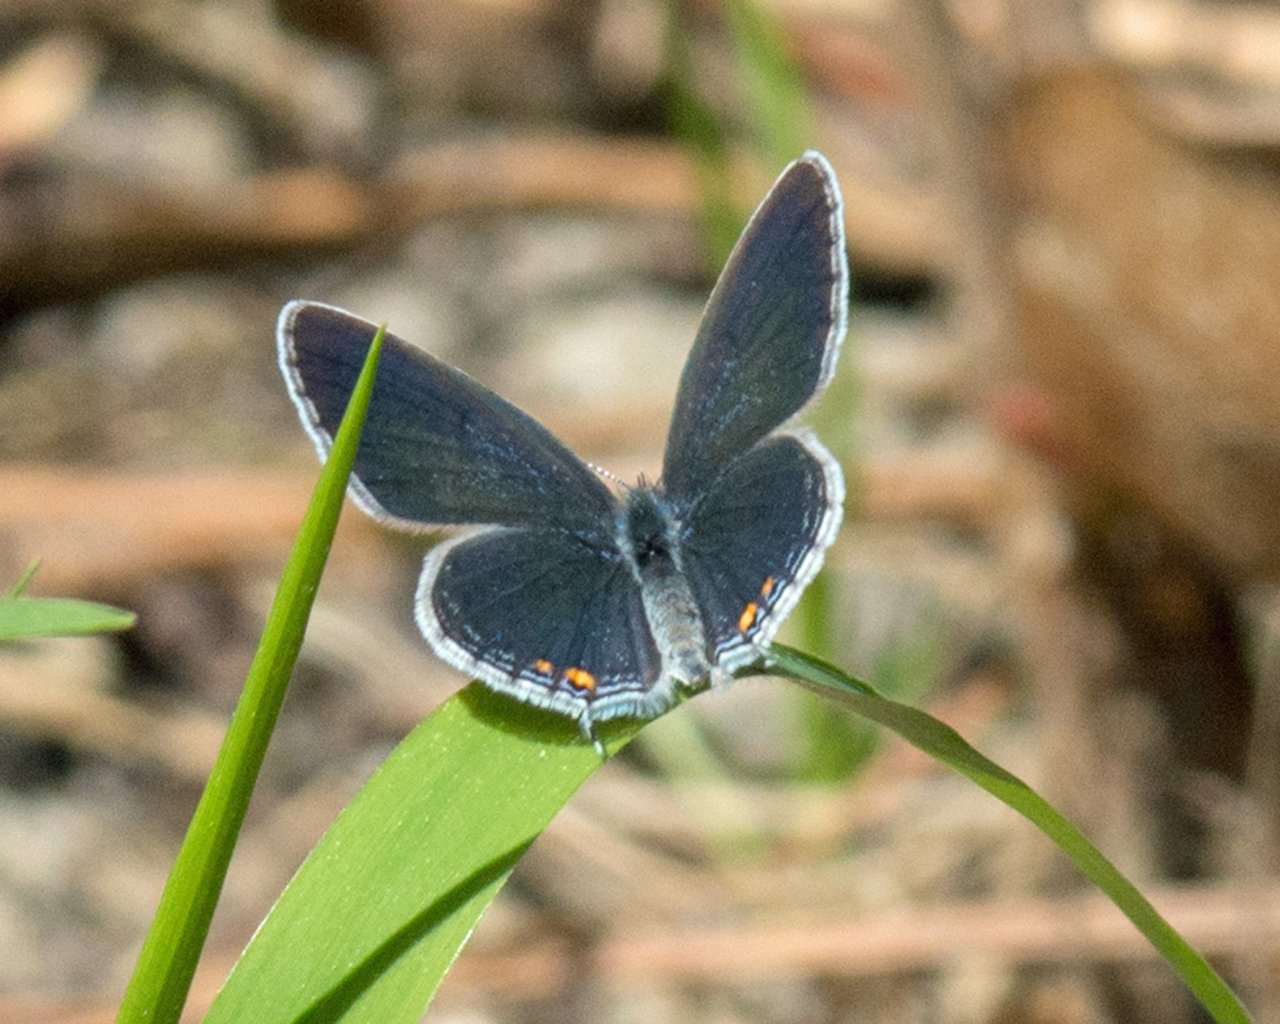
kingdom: Animalia
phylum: Arthropoda
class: Insecta
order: Lepidoptera
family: Lycaenidae
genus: Strymon
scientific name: Strymon melinus
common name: Gray Hairstreak
